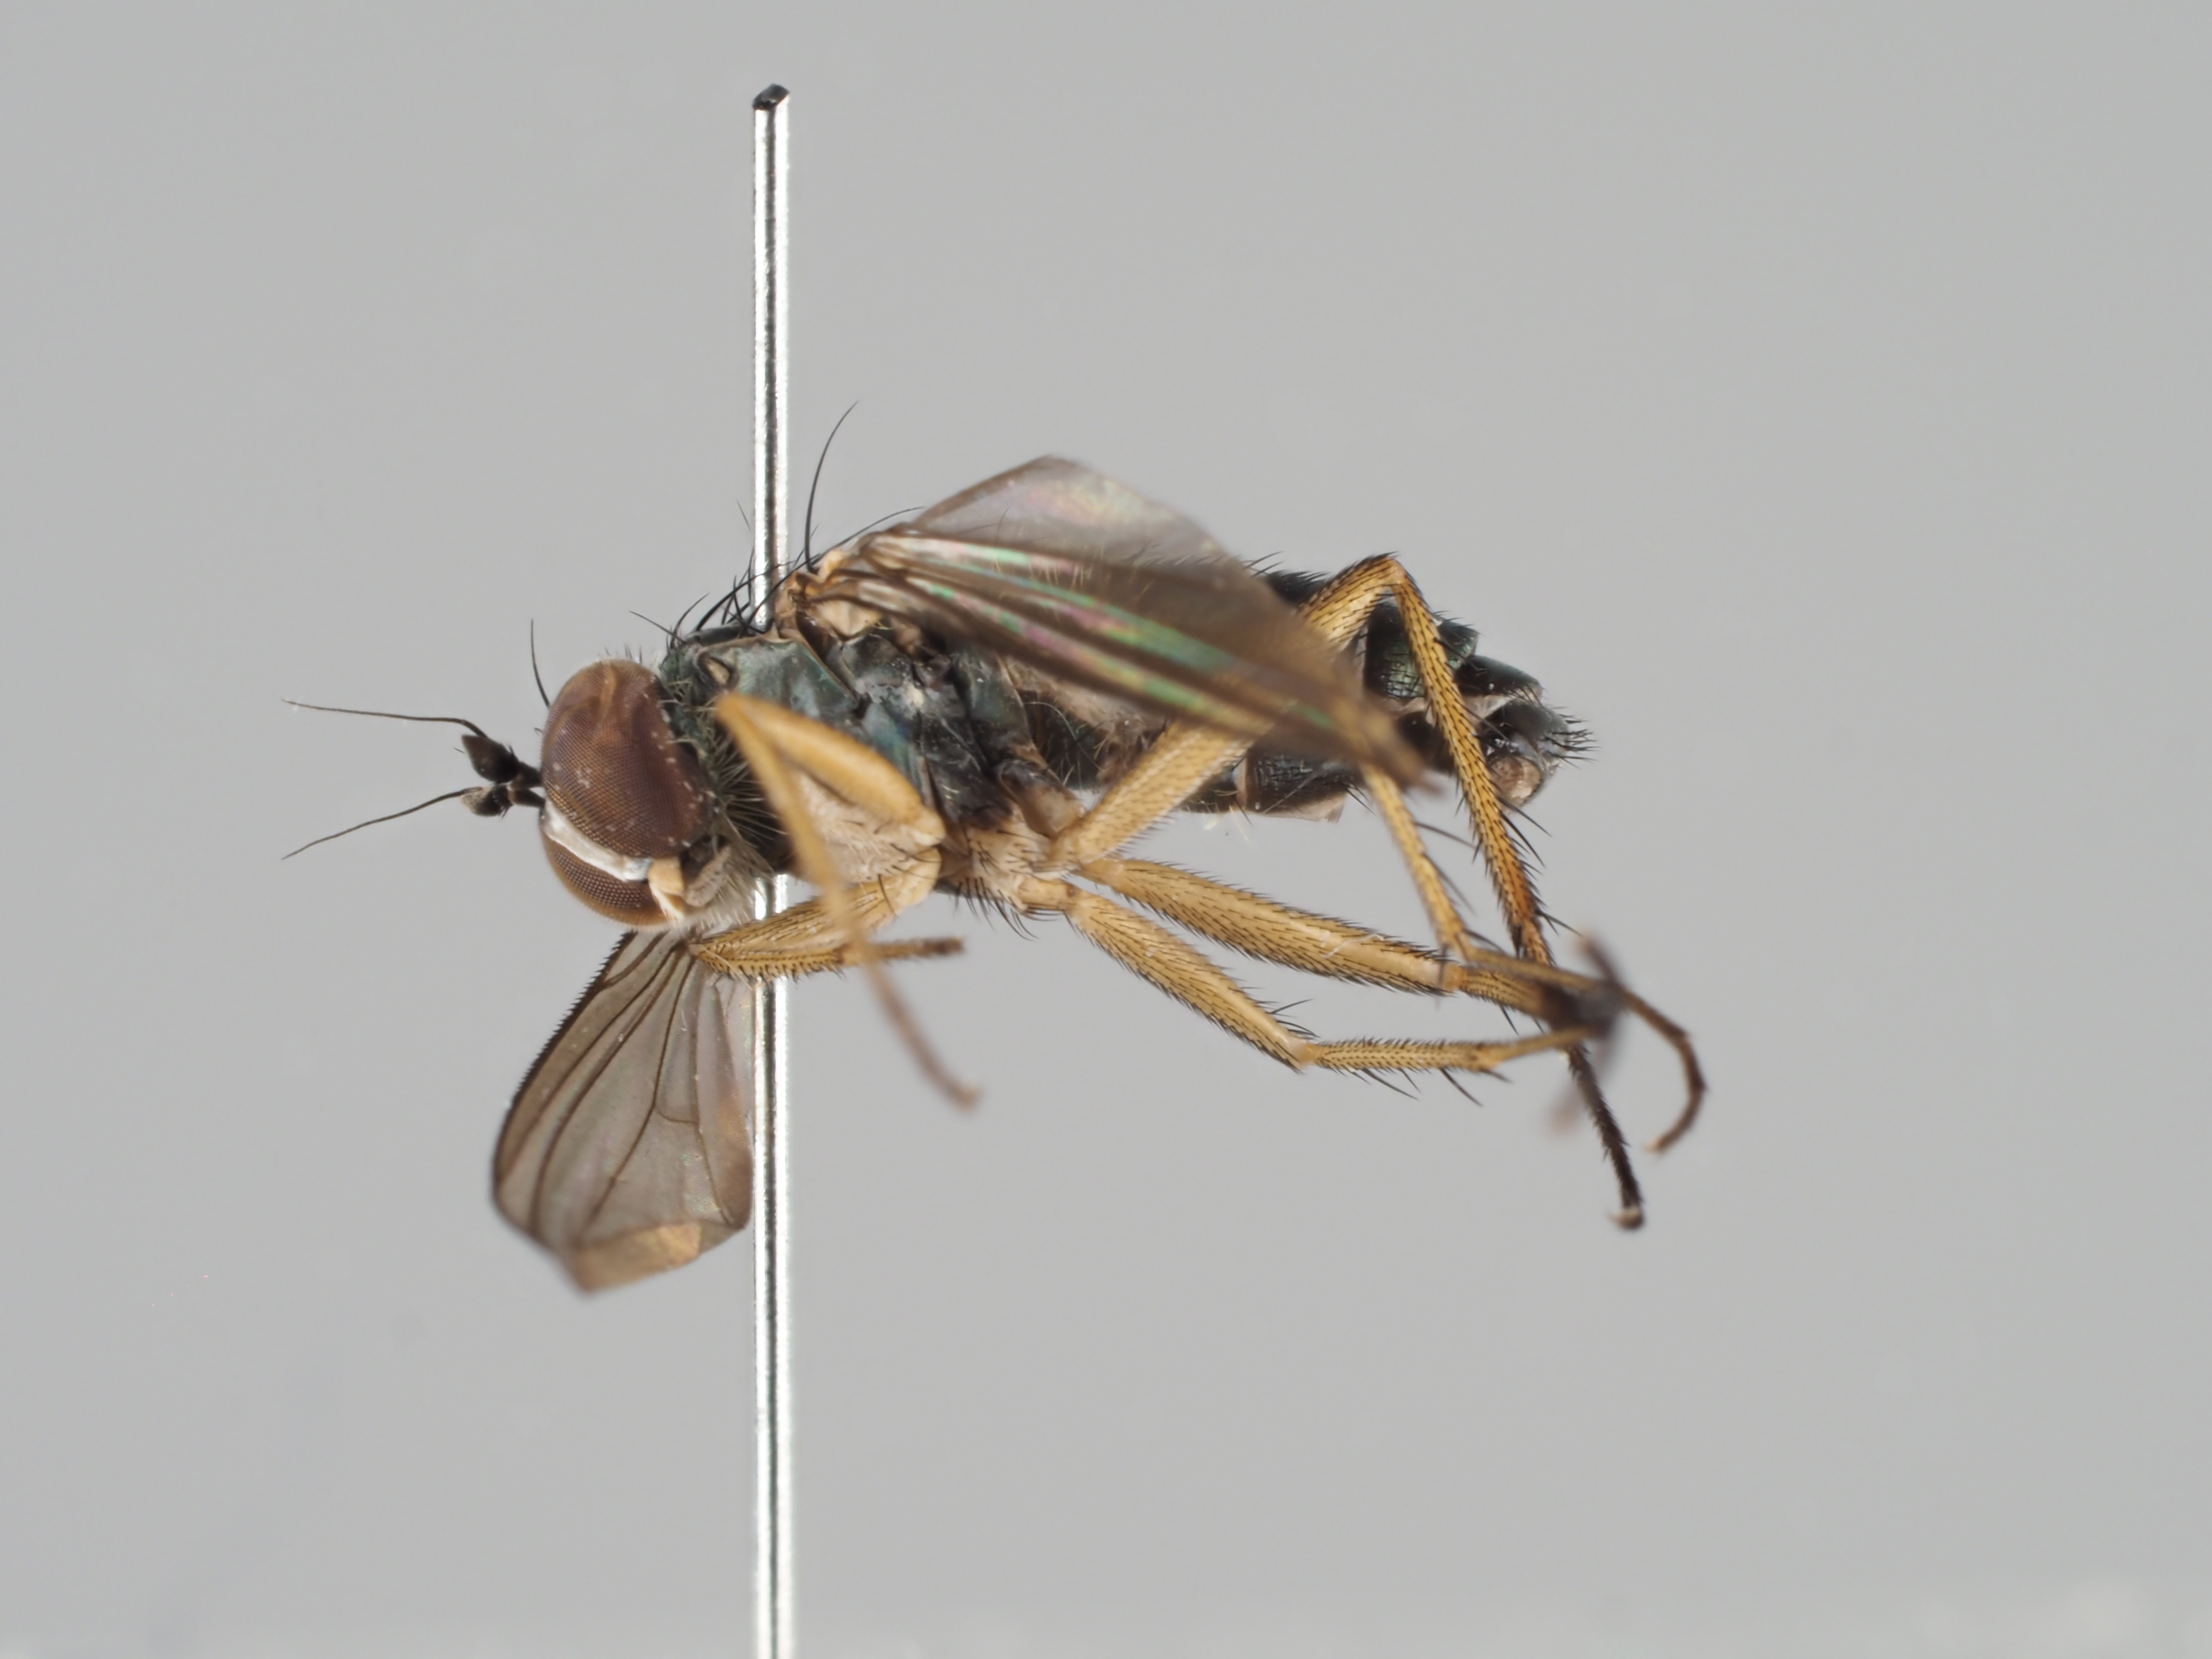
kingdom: Animalia
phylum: Arthropoda
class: Insecta
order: Diptera
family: Dolichopodidae
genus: Nematoproctus
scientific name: Nematoproctus praesectus
